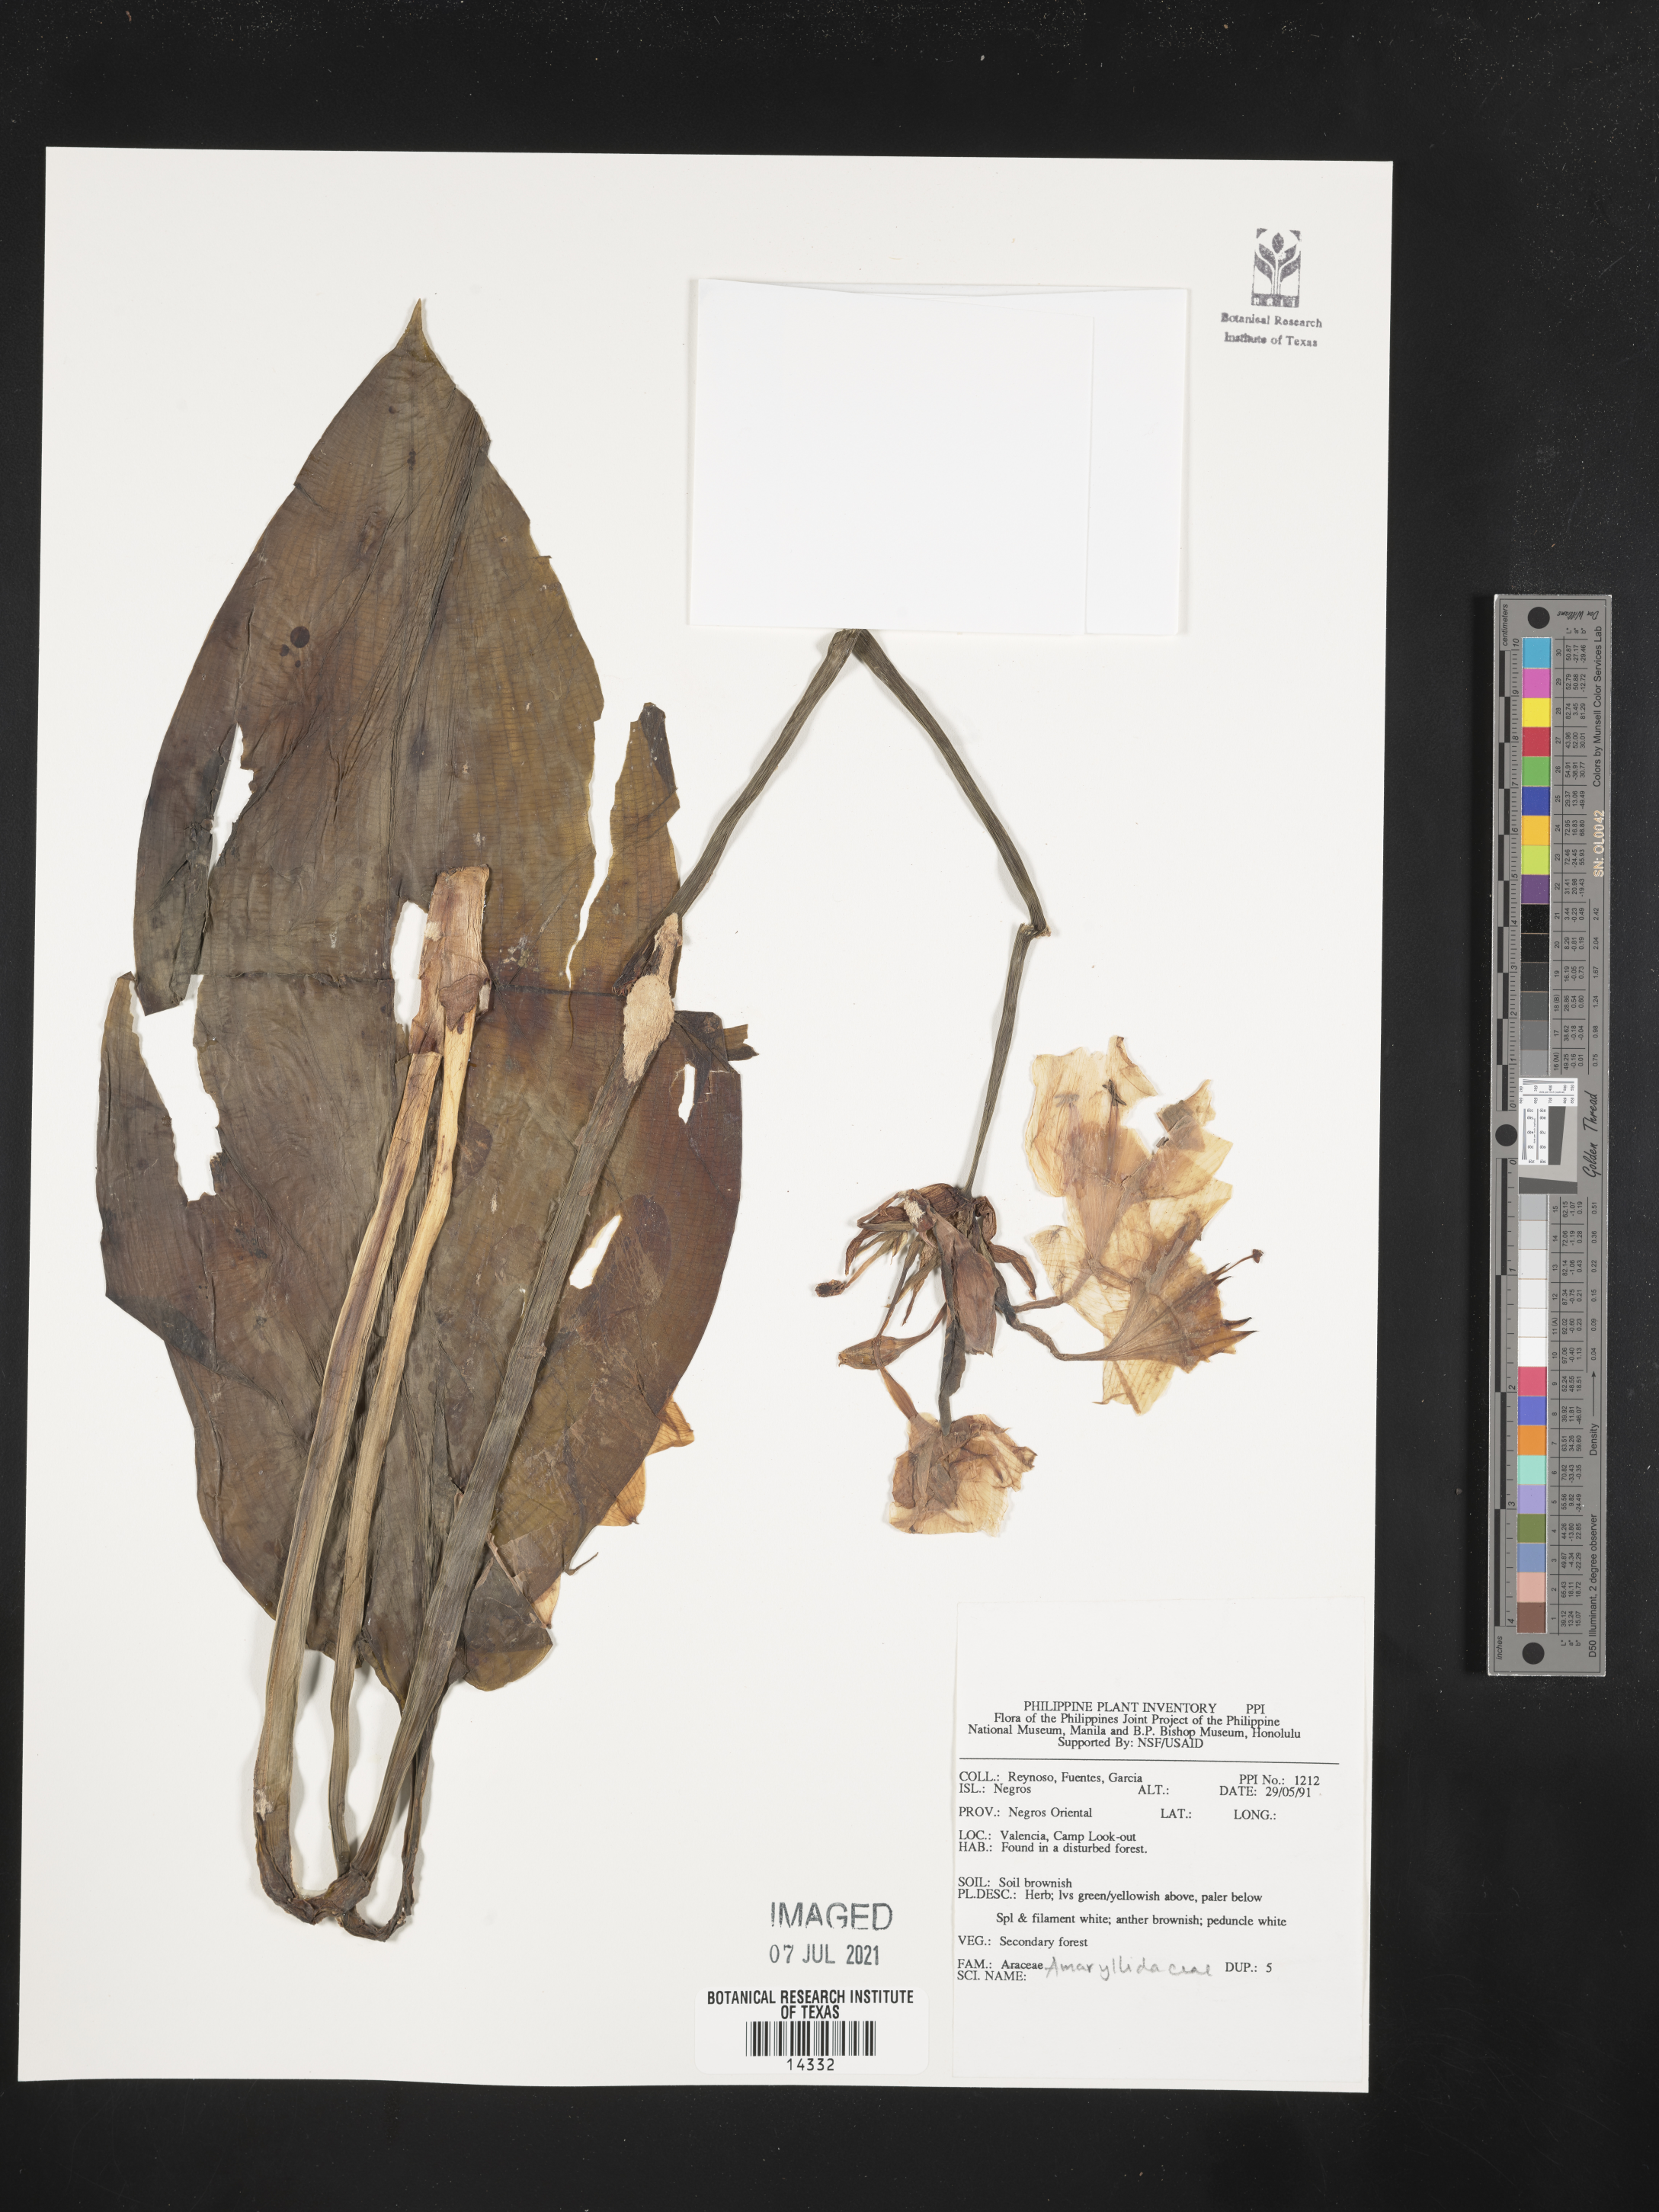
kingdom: Plantae
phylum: Tracheophyta
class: Liliopsida
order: Asparagales
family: Amaryllidaceae
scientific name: Amaryllidaceae
